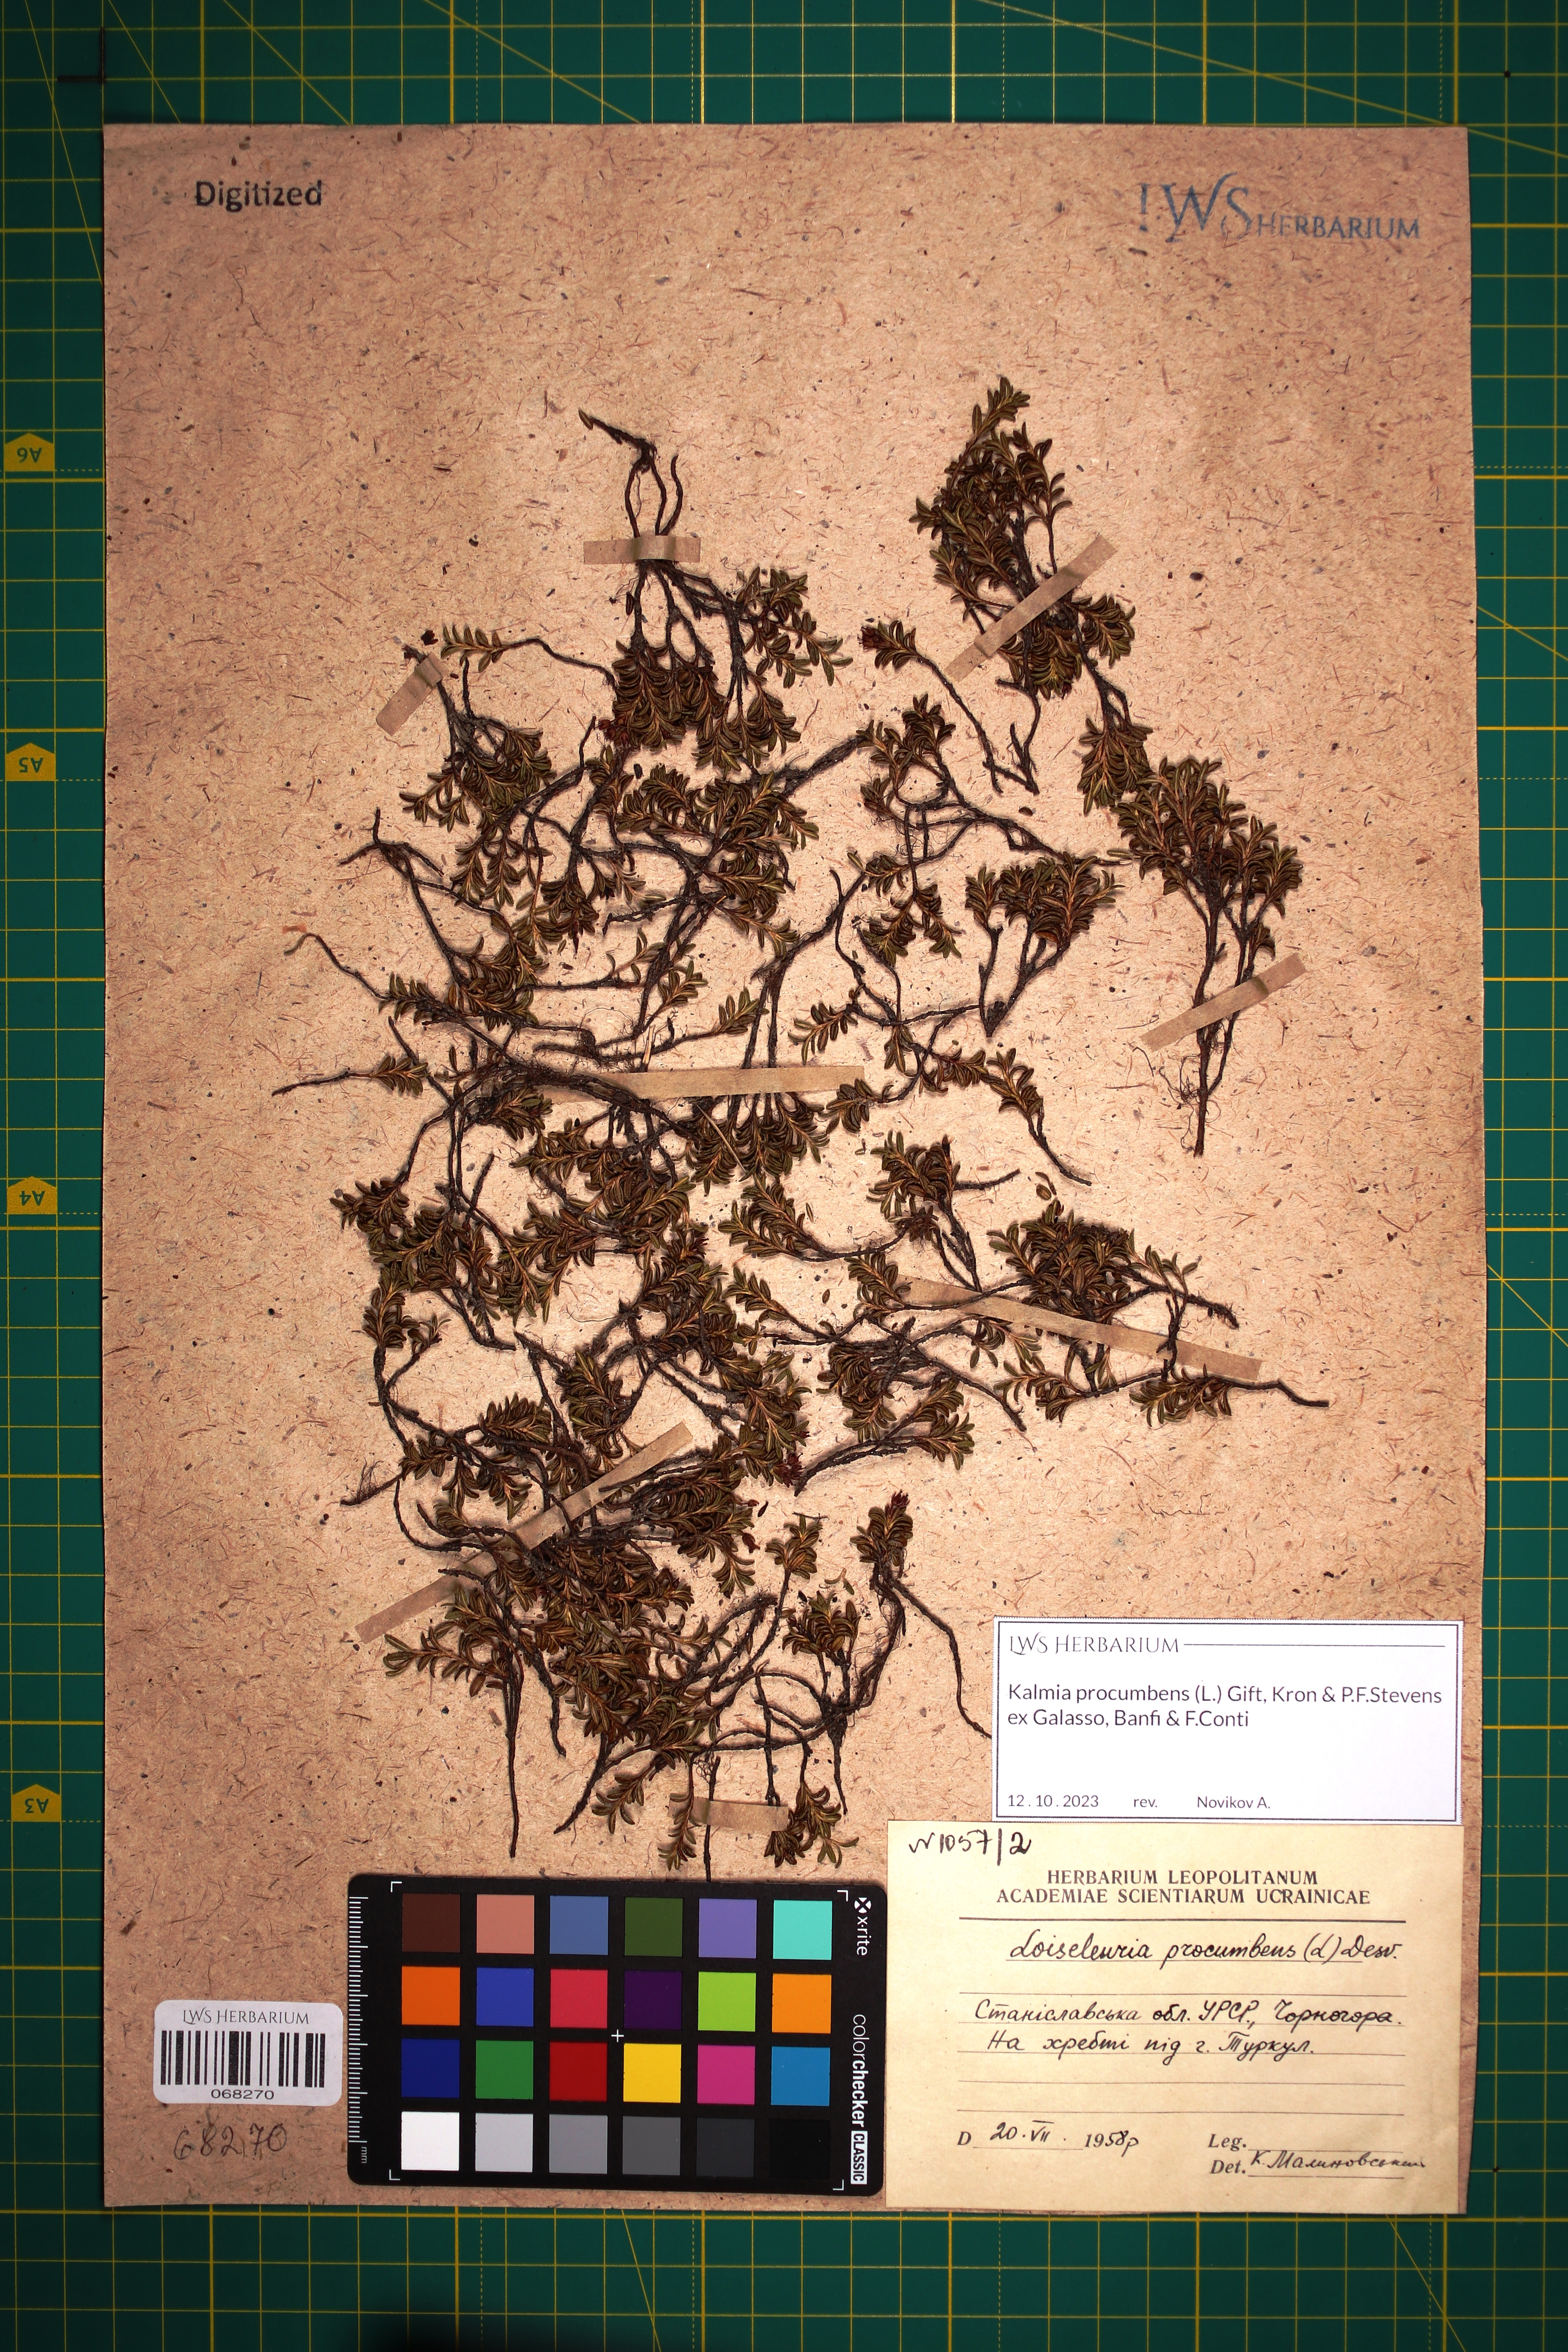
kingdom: Plantae
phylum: Tracheophyta
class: Magnoliopsida
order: Ericales
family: Ericaceae
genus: Kalmia
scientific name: Kalmia procumbens
